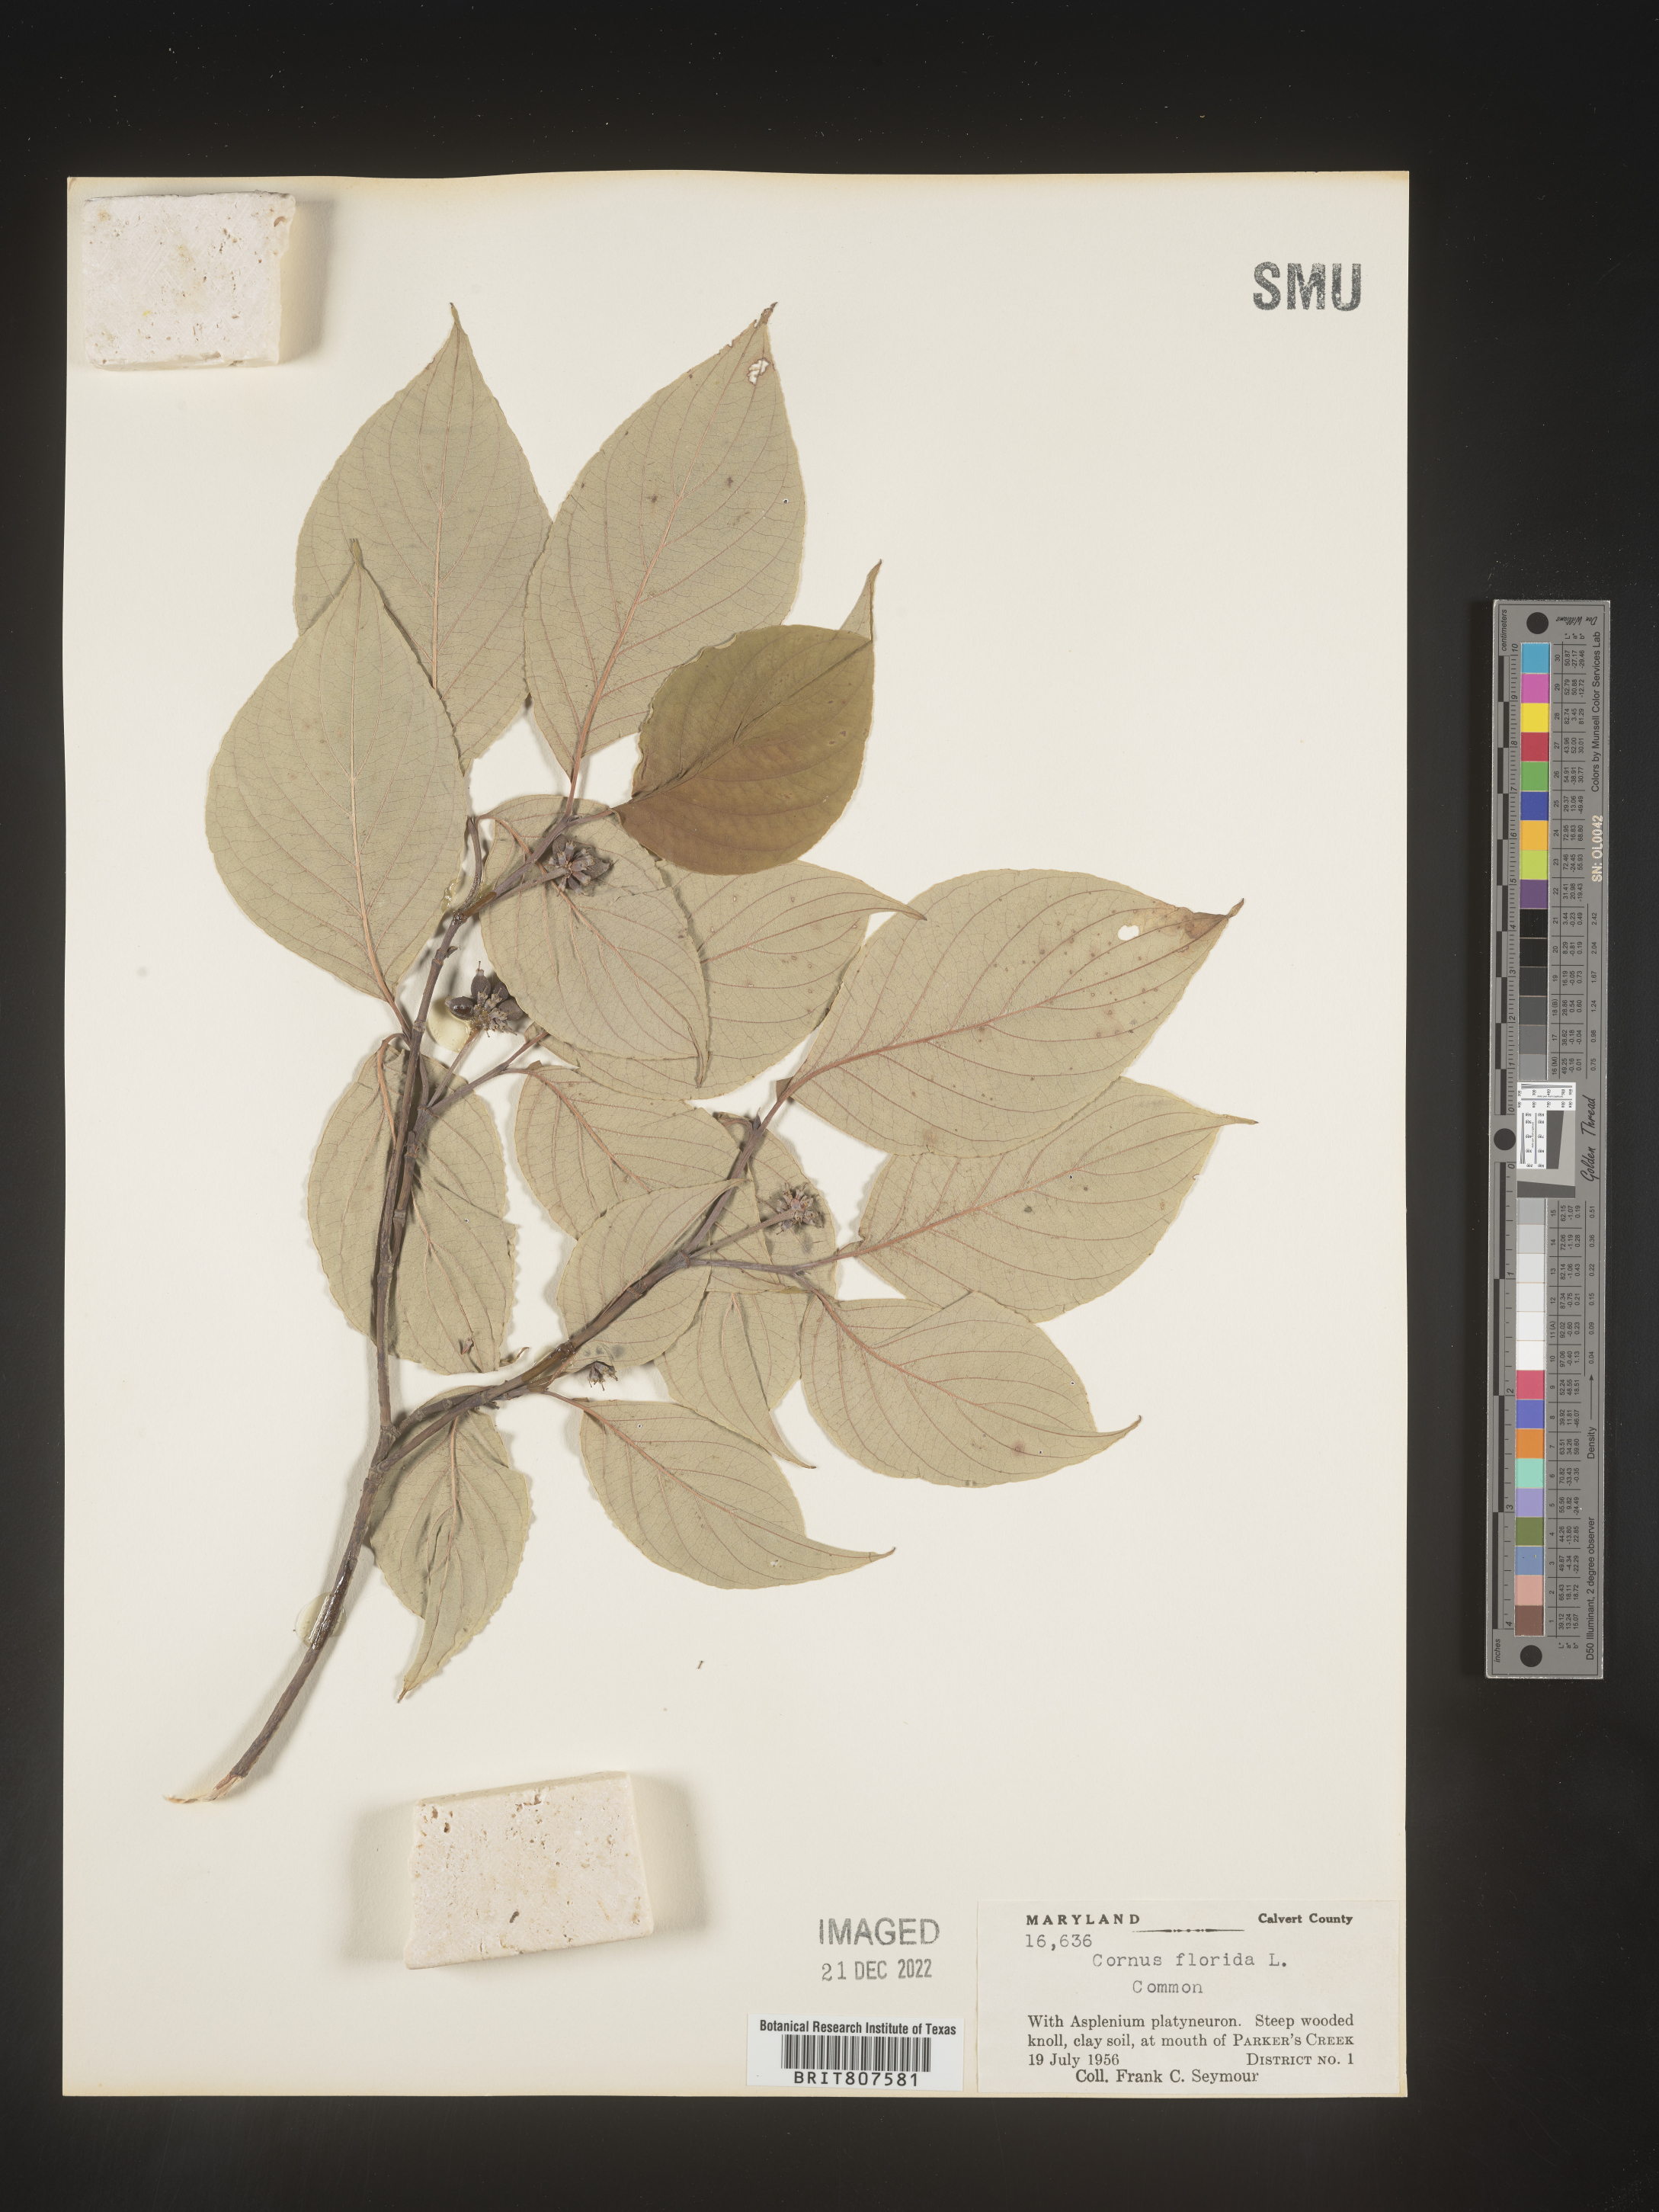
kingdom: Plantae
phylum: Tracheophyta
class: Magnoliopsida
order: Cornales
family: Cornaceae
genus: Cornus
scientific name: Cornus florida
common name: Flowering dogwood
